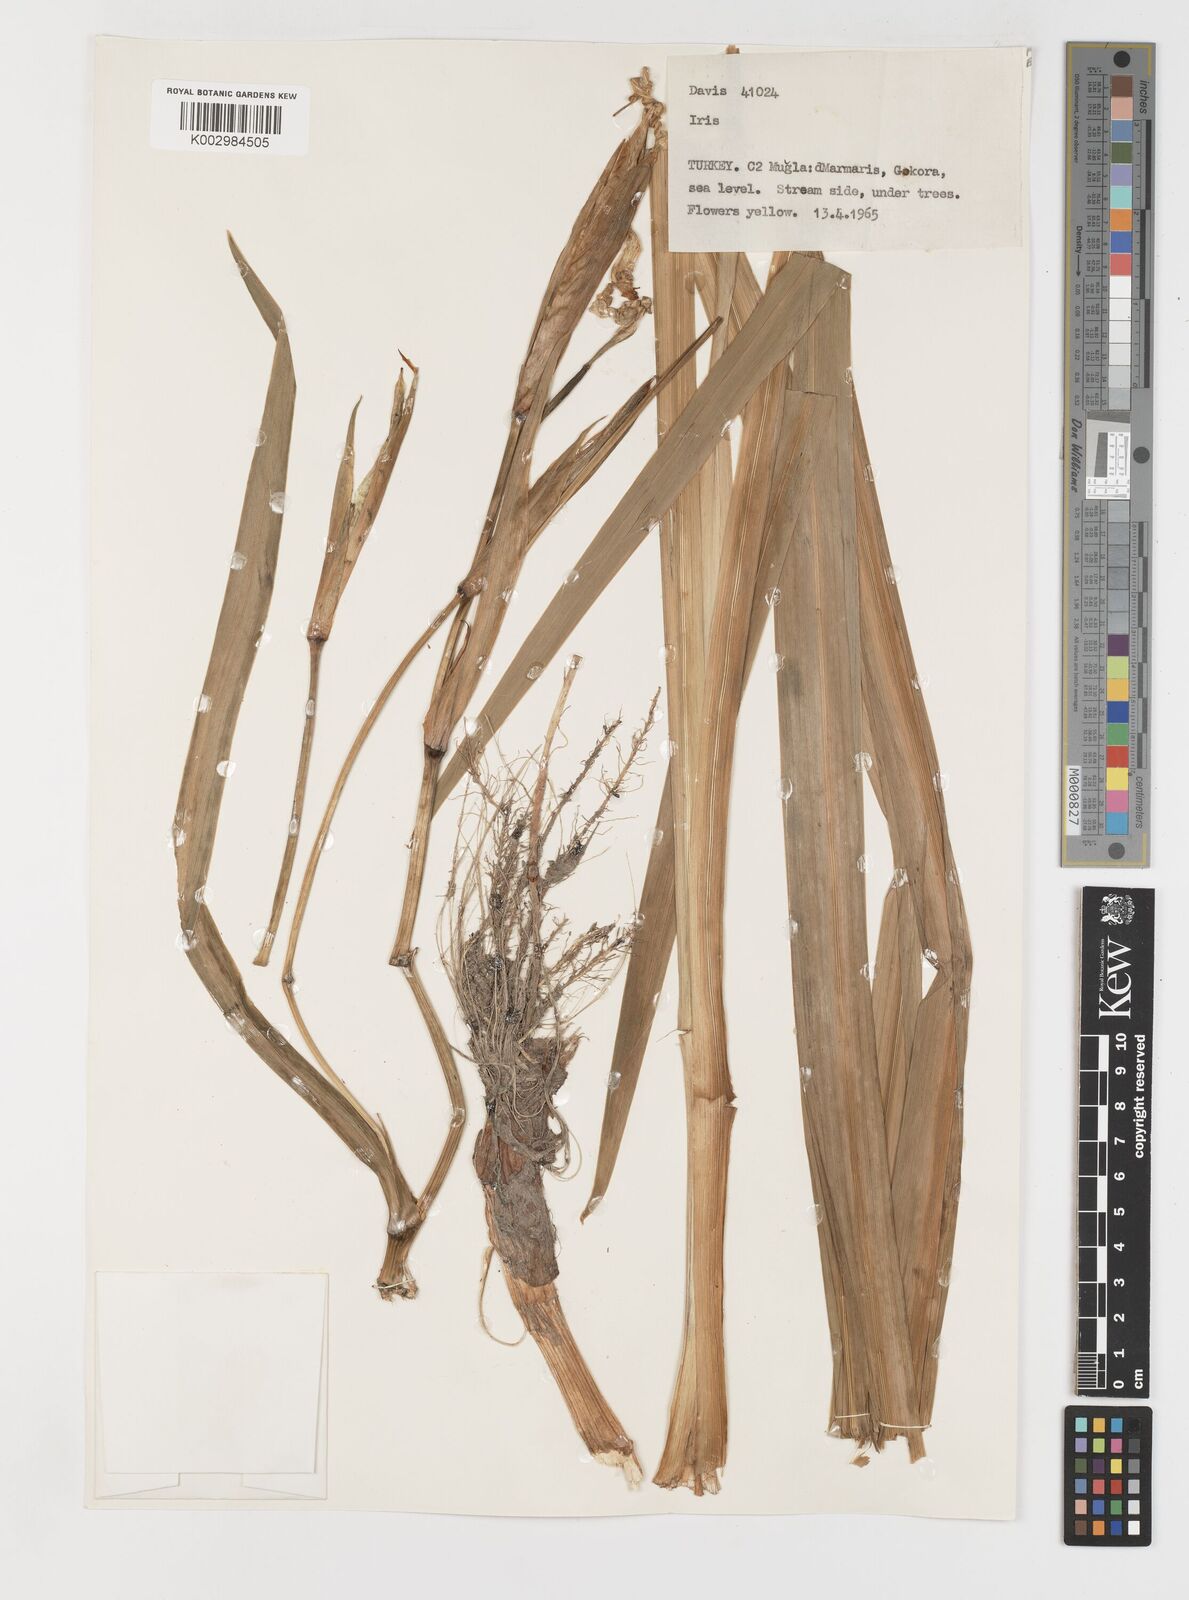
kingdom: Plantae
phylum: Tracheophyta
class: Liliopsida
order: Asparagales
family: Iridaceae
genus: Iris
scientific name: Iris pseudacorus
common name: Yellow flag
